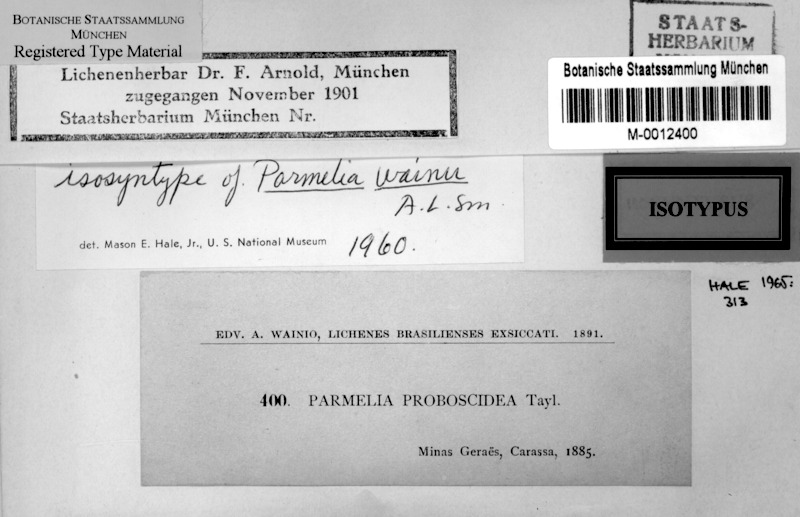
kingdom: Fungi
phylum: Ascomycota
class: Lecanoromycetes
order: Lecanorales
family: Parmeliaceae
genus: Parmotrema
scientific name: Parmotrema wainii
